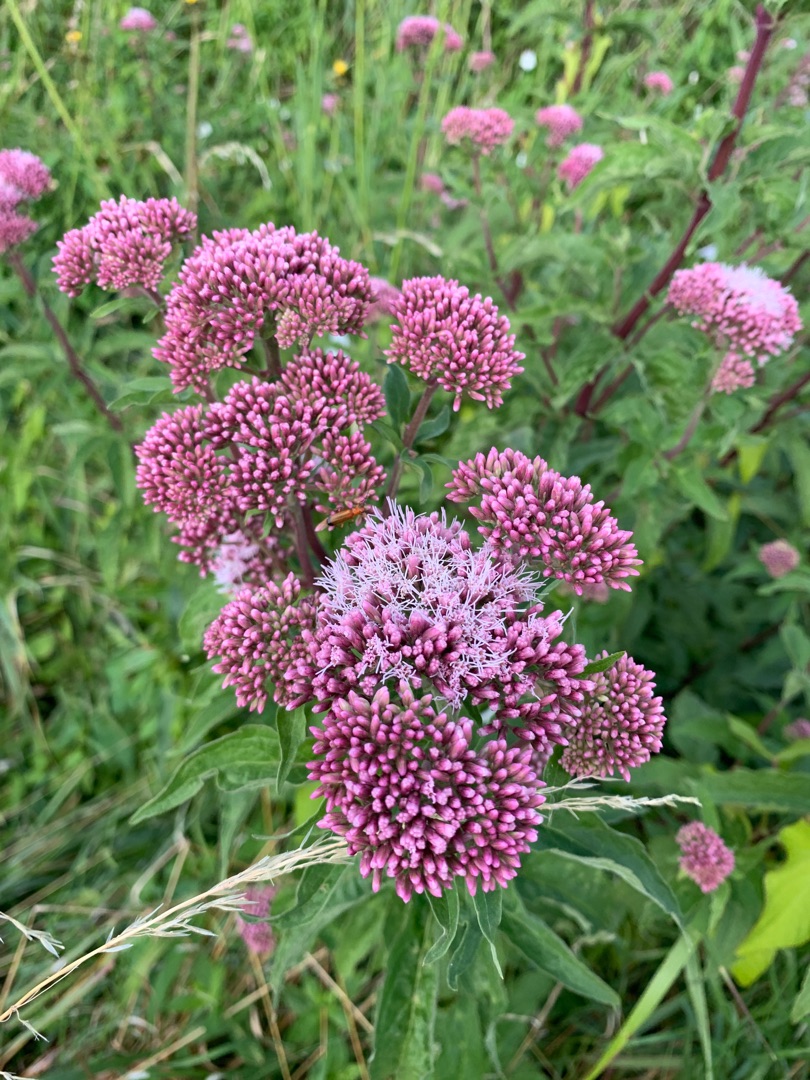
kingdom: Plantae
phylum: Tracheophyta
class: Magnoliopsida
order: Asterales
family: Asteraceae
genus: Eupatorium
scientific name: Eupatorium cannabinum
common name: Hjortetrøst
